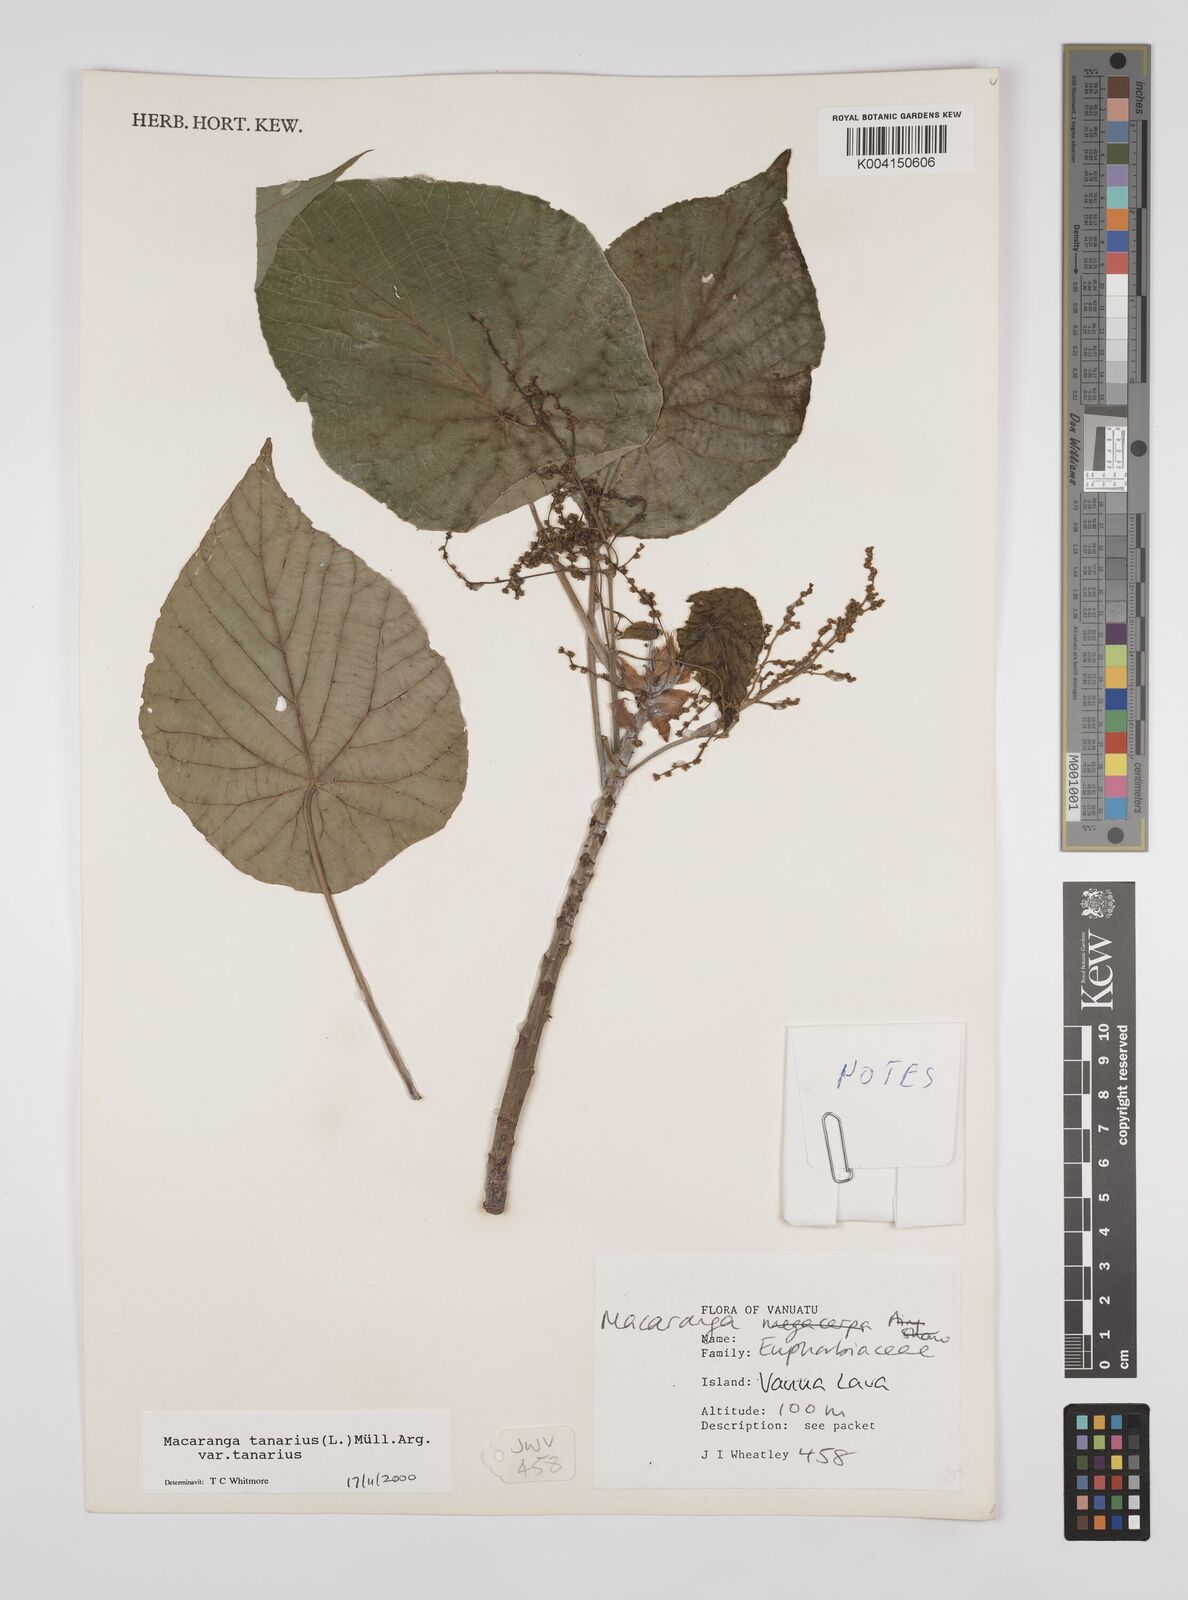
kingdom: Plantae
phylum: Tracheophyta
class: Magnoliopsida
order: Malpighiales
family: Euphorbiaceae
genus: Macaranga
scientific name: Macaranga tanarius
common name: Parasol leaf tree
